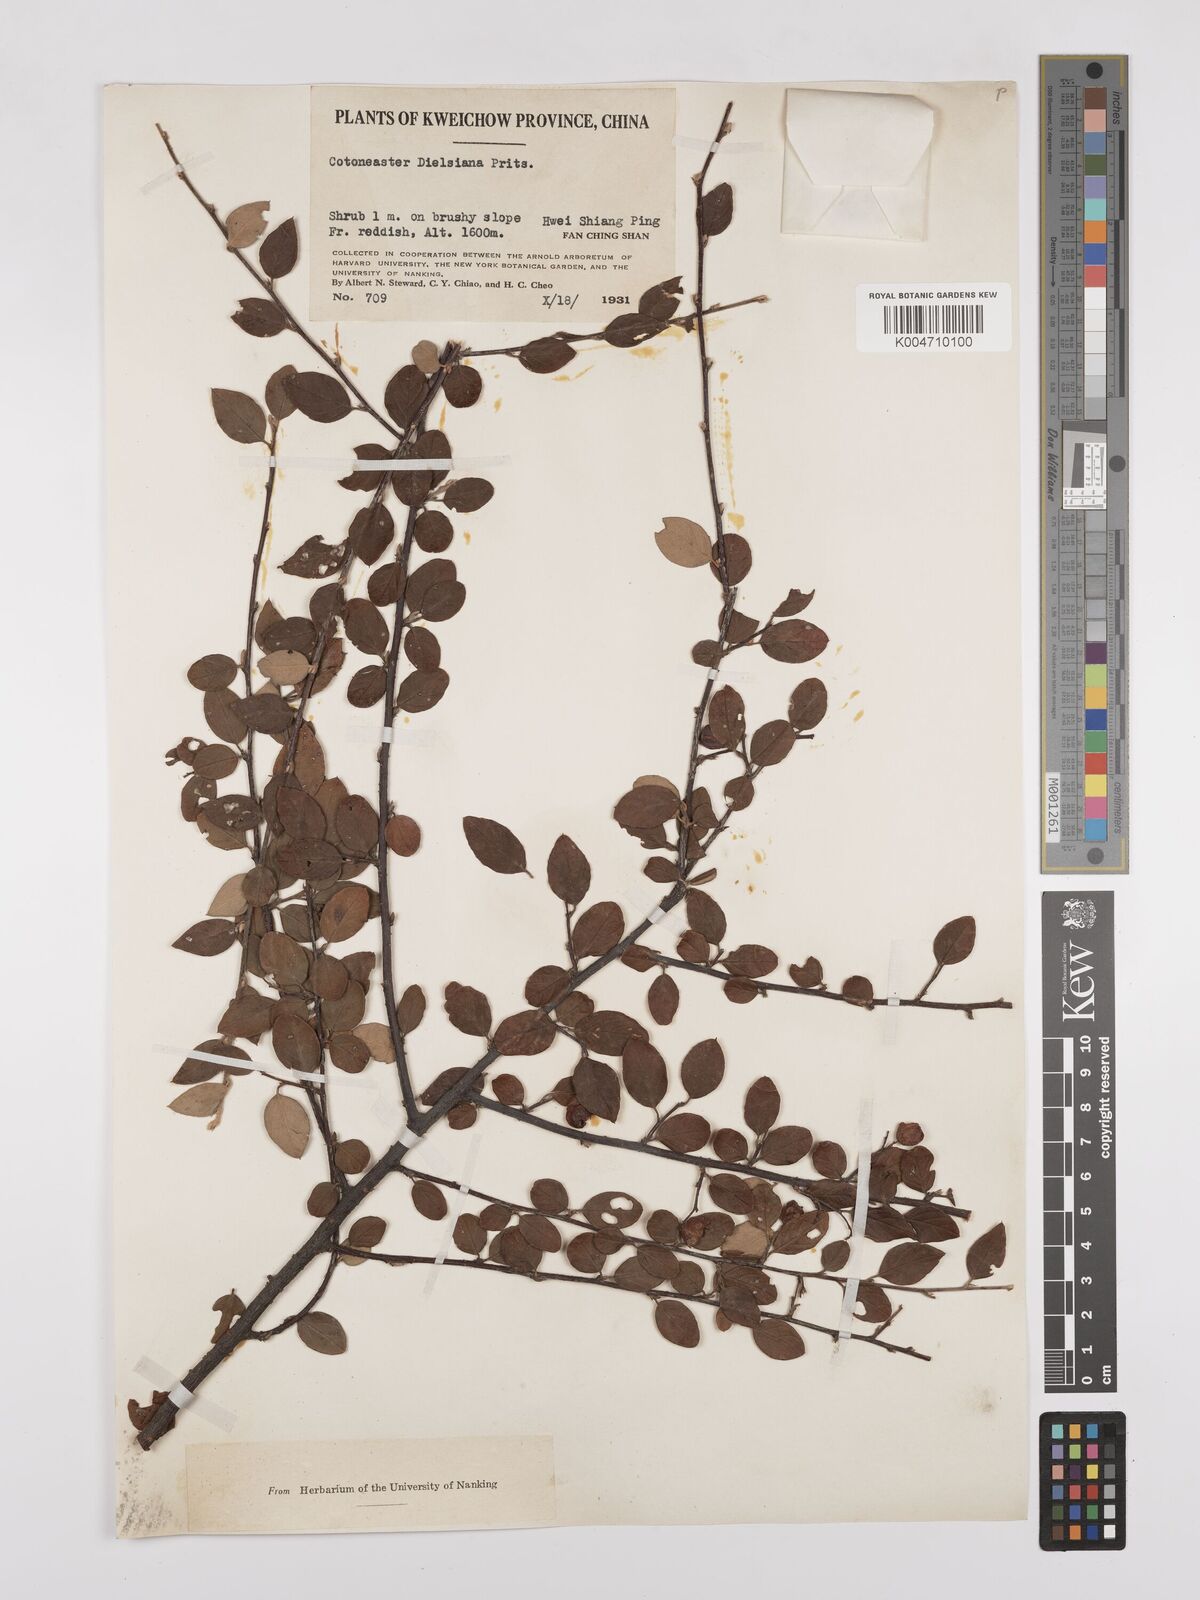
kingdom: Plantae
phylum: Tracheophyta
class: Magnoliopsida
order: Rosales
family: Rosaceae
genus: Cotoneaster
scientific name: Cotoneaster dielsianus
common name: Diels's cotoneaster
